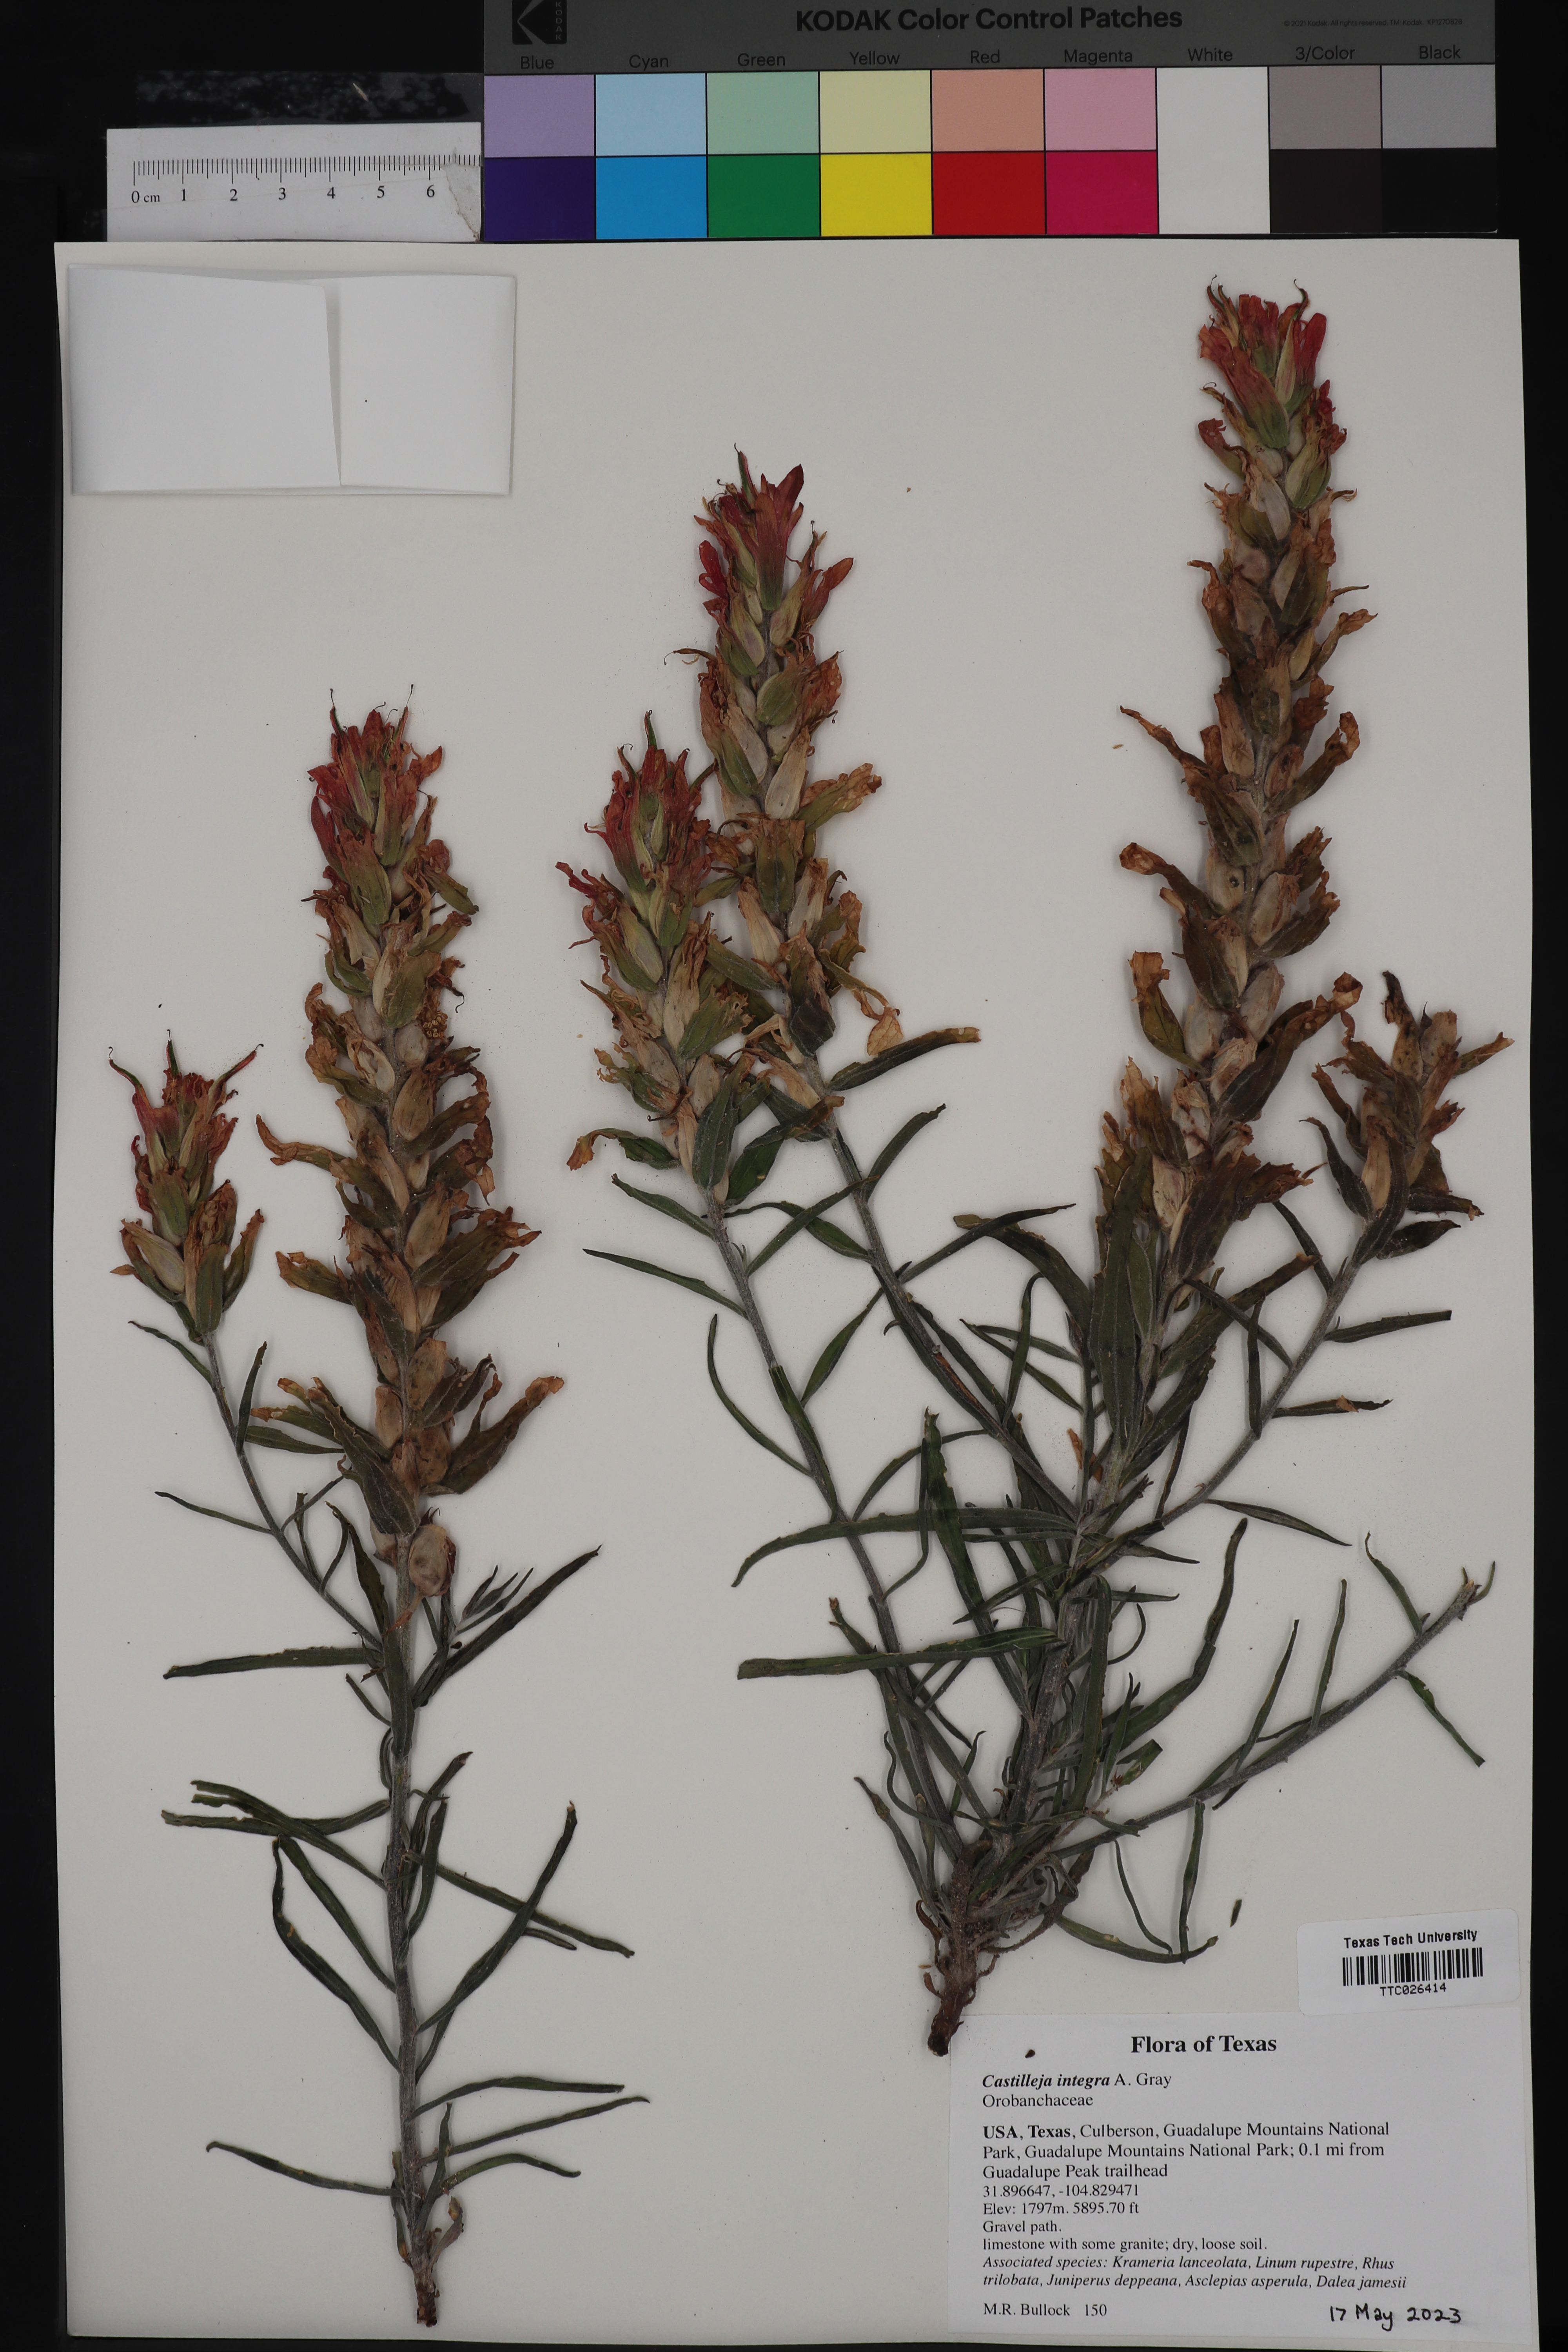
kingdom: Plantae
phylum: Tracheophyta
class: Magnoliopsida
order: Lamiales
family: Orobanchaceae
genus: Castilleja
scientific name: Castilleja integra
